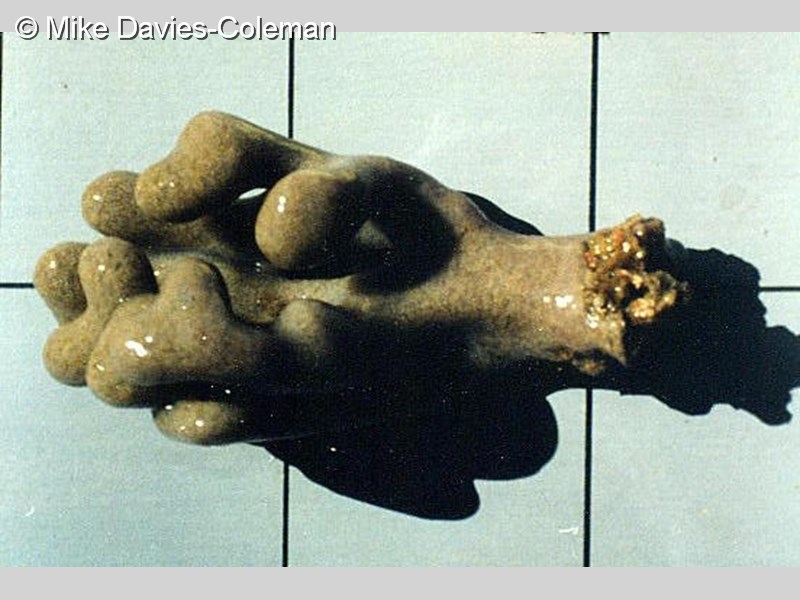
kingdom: Animalia
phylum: Chordata
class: Ascidiacea
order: Aplousobranchia
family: Polyclinidae
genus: Synoicum
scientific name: Synoicum
